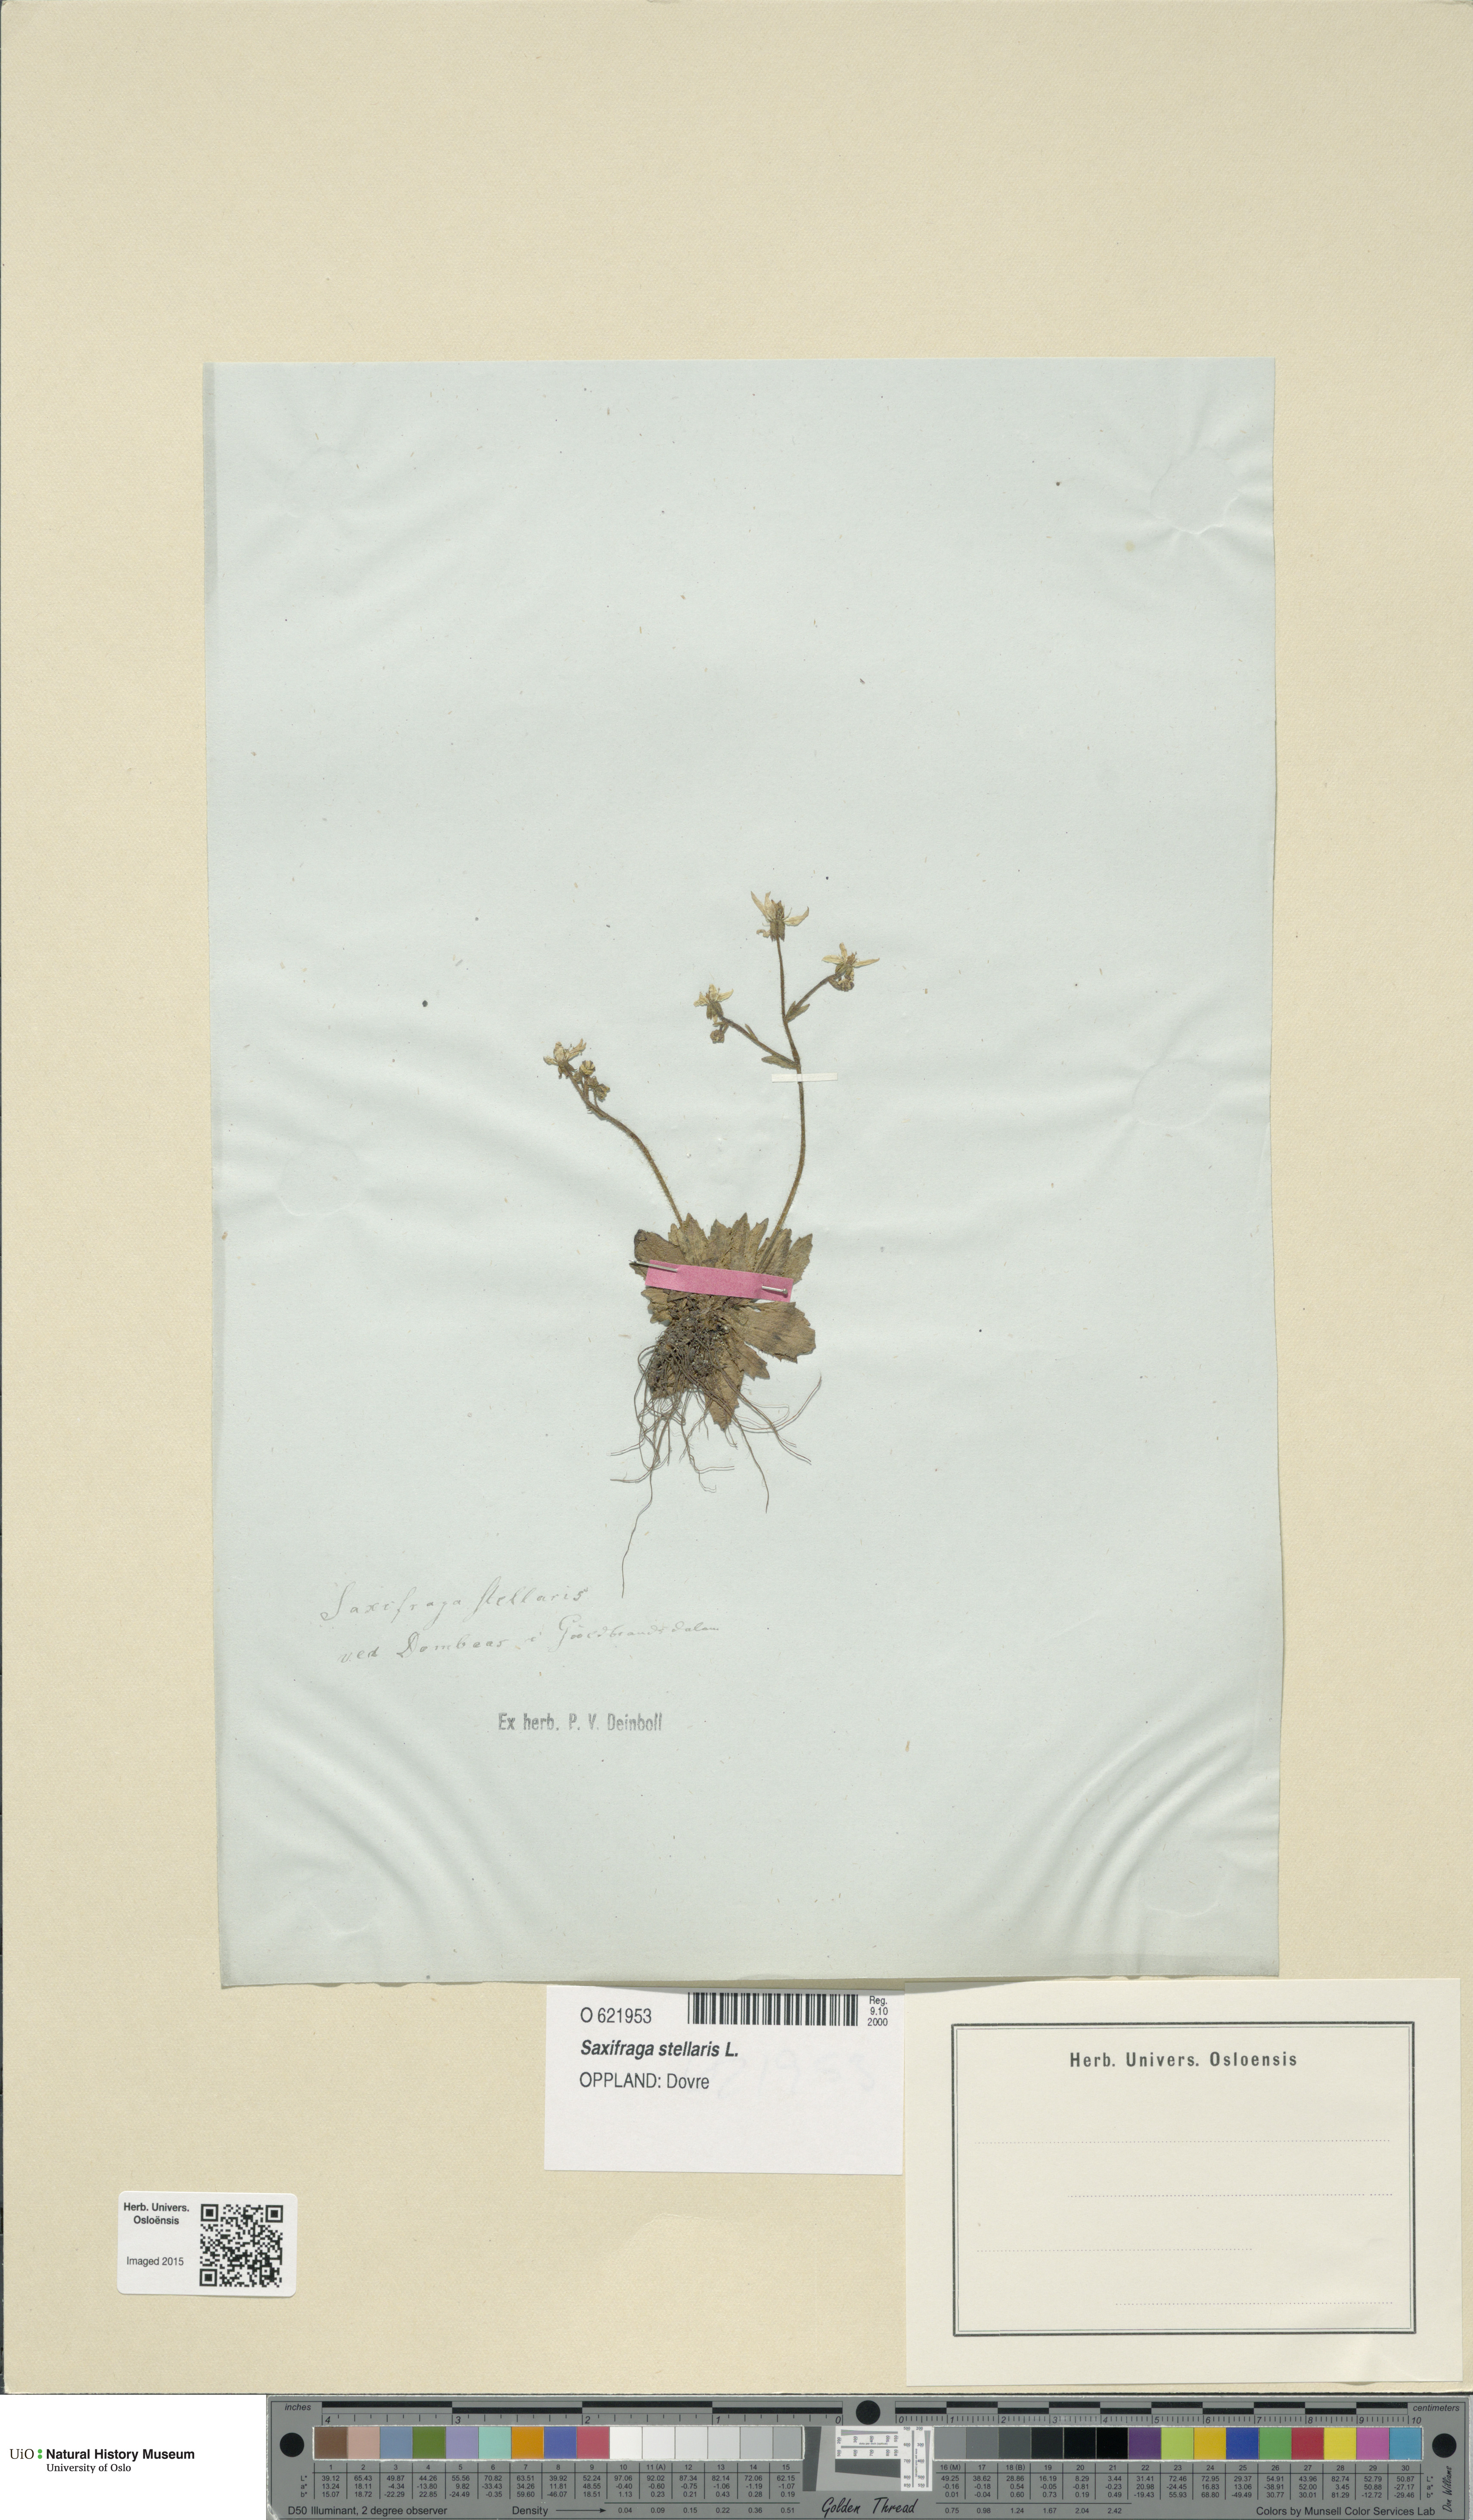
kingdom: Plantae
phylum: Tracheophyta
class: Magnoliopsida
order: Saxifragales
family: Saxifragaceae
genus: Micranthes
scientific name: Micranthes stellaris
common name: Starry saxifrage
